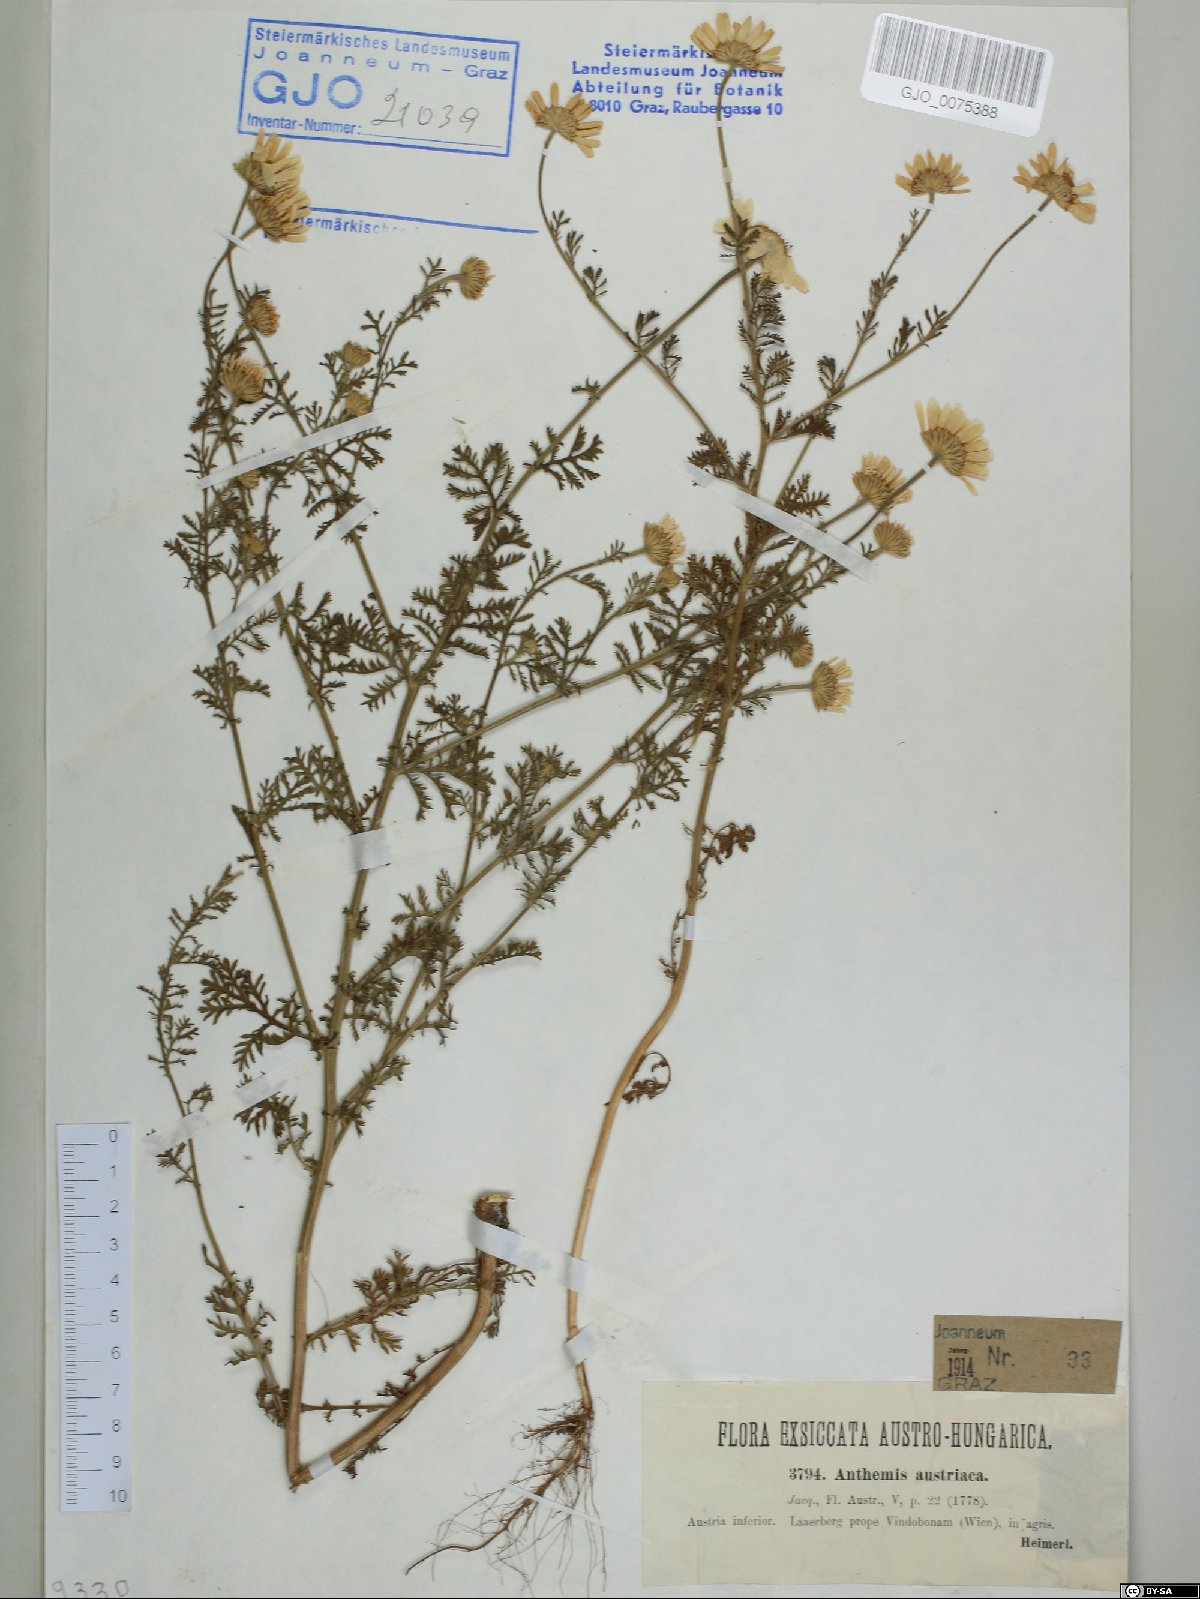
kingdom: Plantae
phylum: Tracheophyta
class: Magnoliopsida
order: Asterales
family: Asteraceae
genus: Cota
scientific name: Cota austriaca
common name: Austrian chamomile
